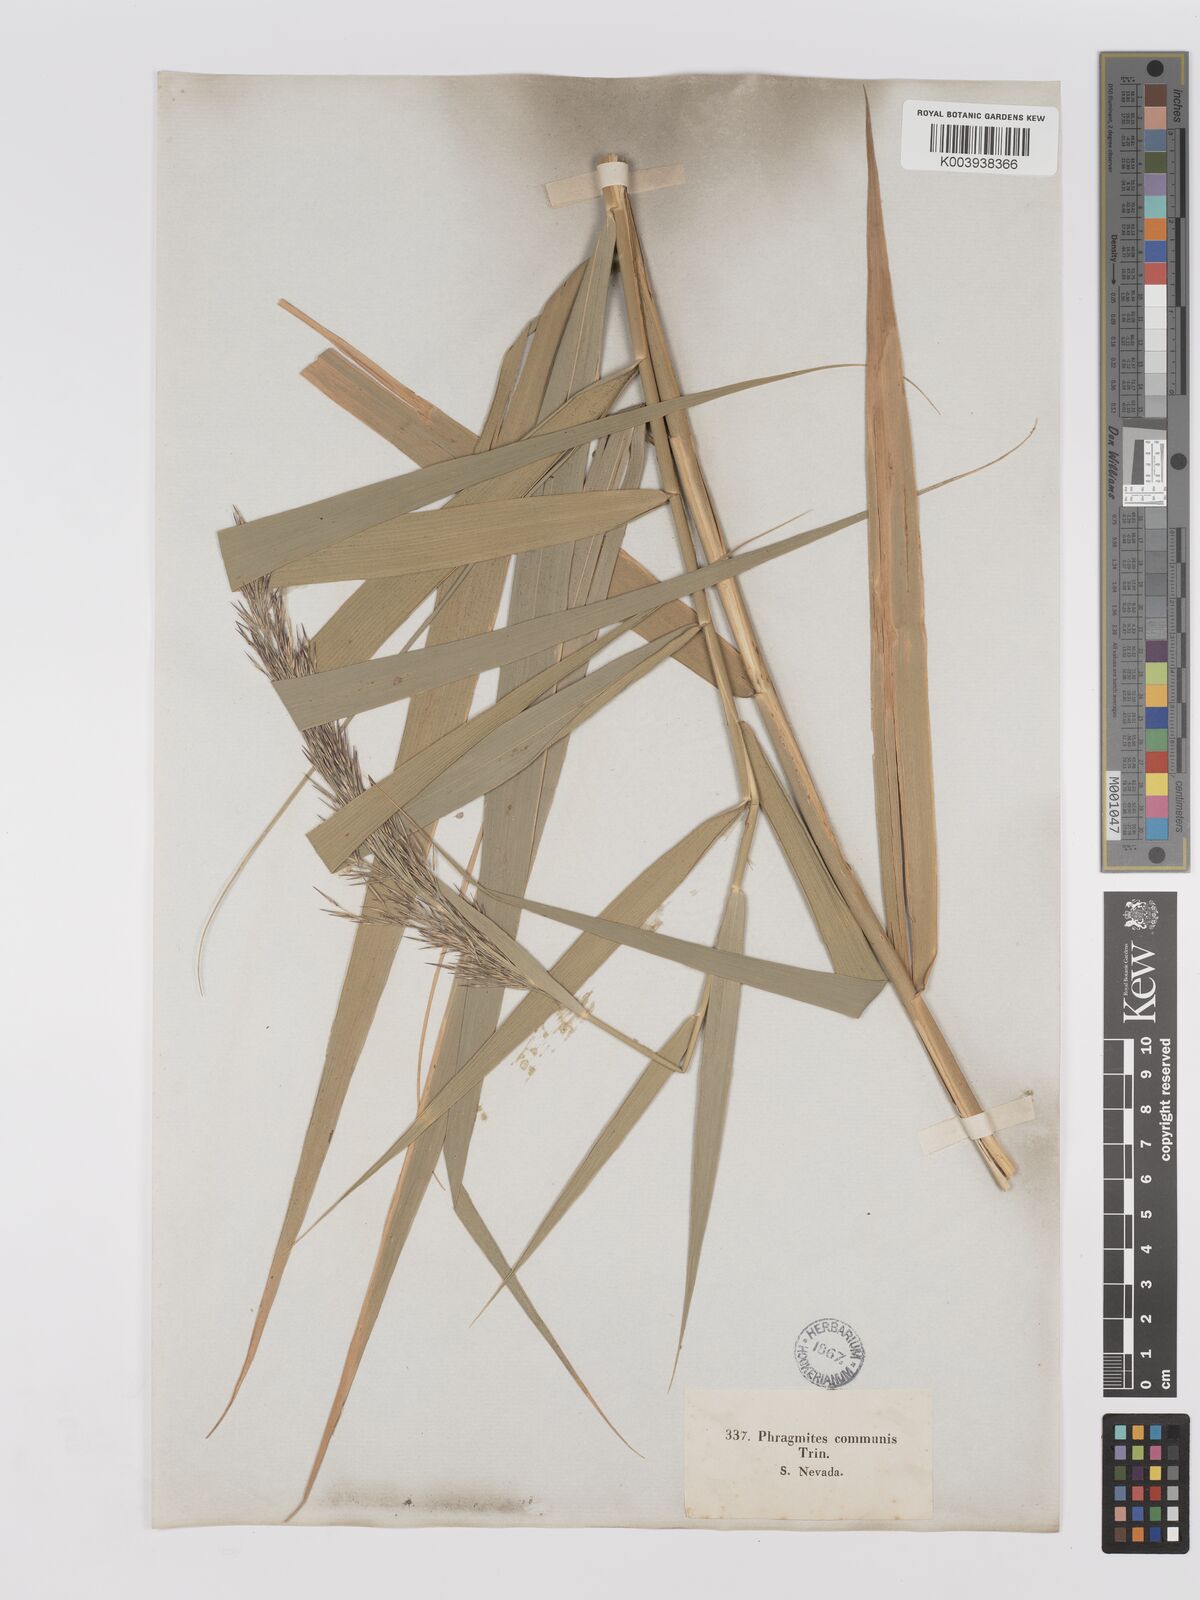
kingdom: Plantae
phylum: Tracheophyta
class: Liliopsida
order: Poales
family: Poaceae
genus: Phragmites
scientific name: Phragmites australis
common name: Common reed
